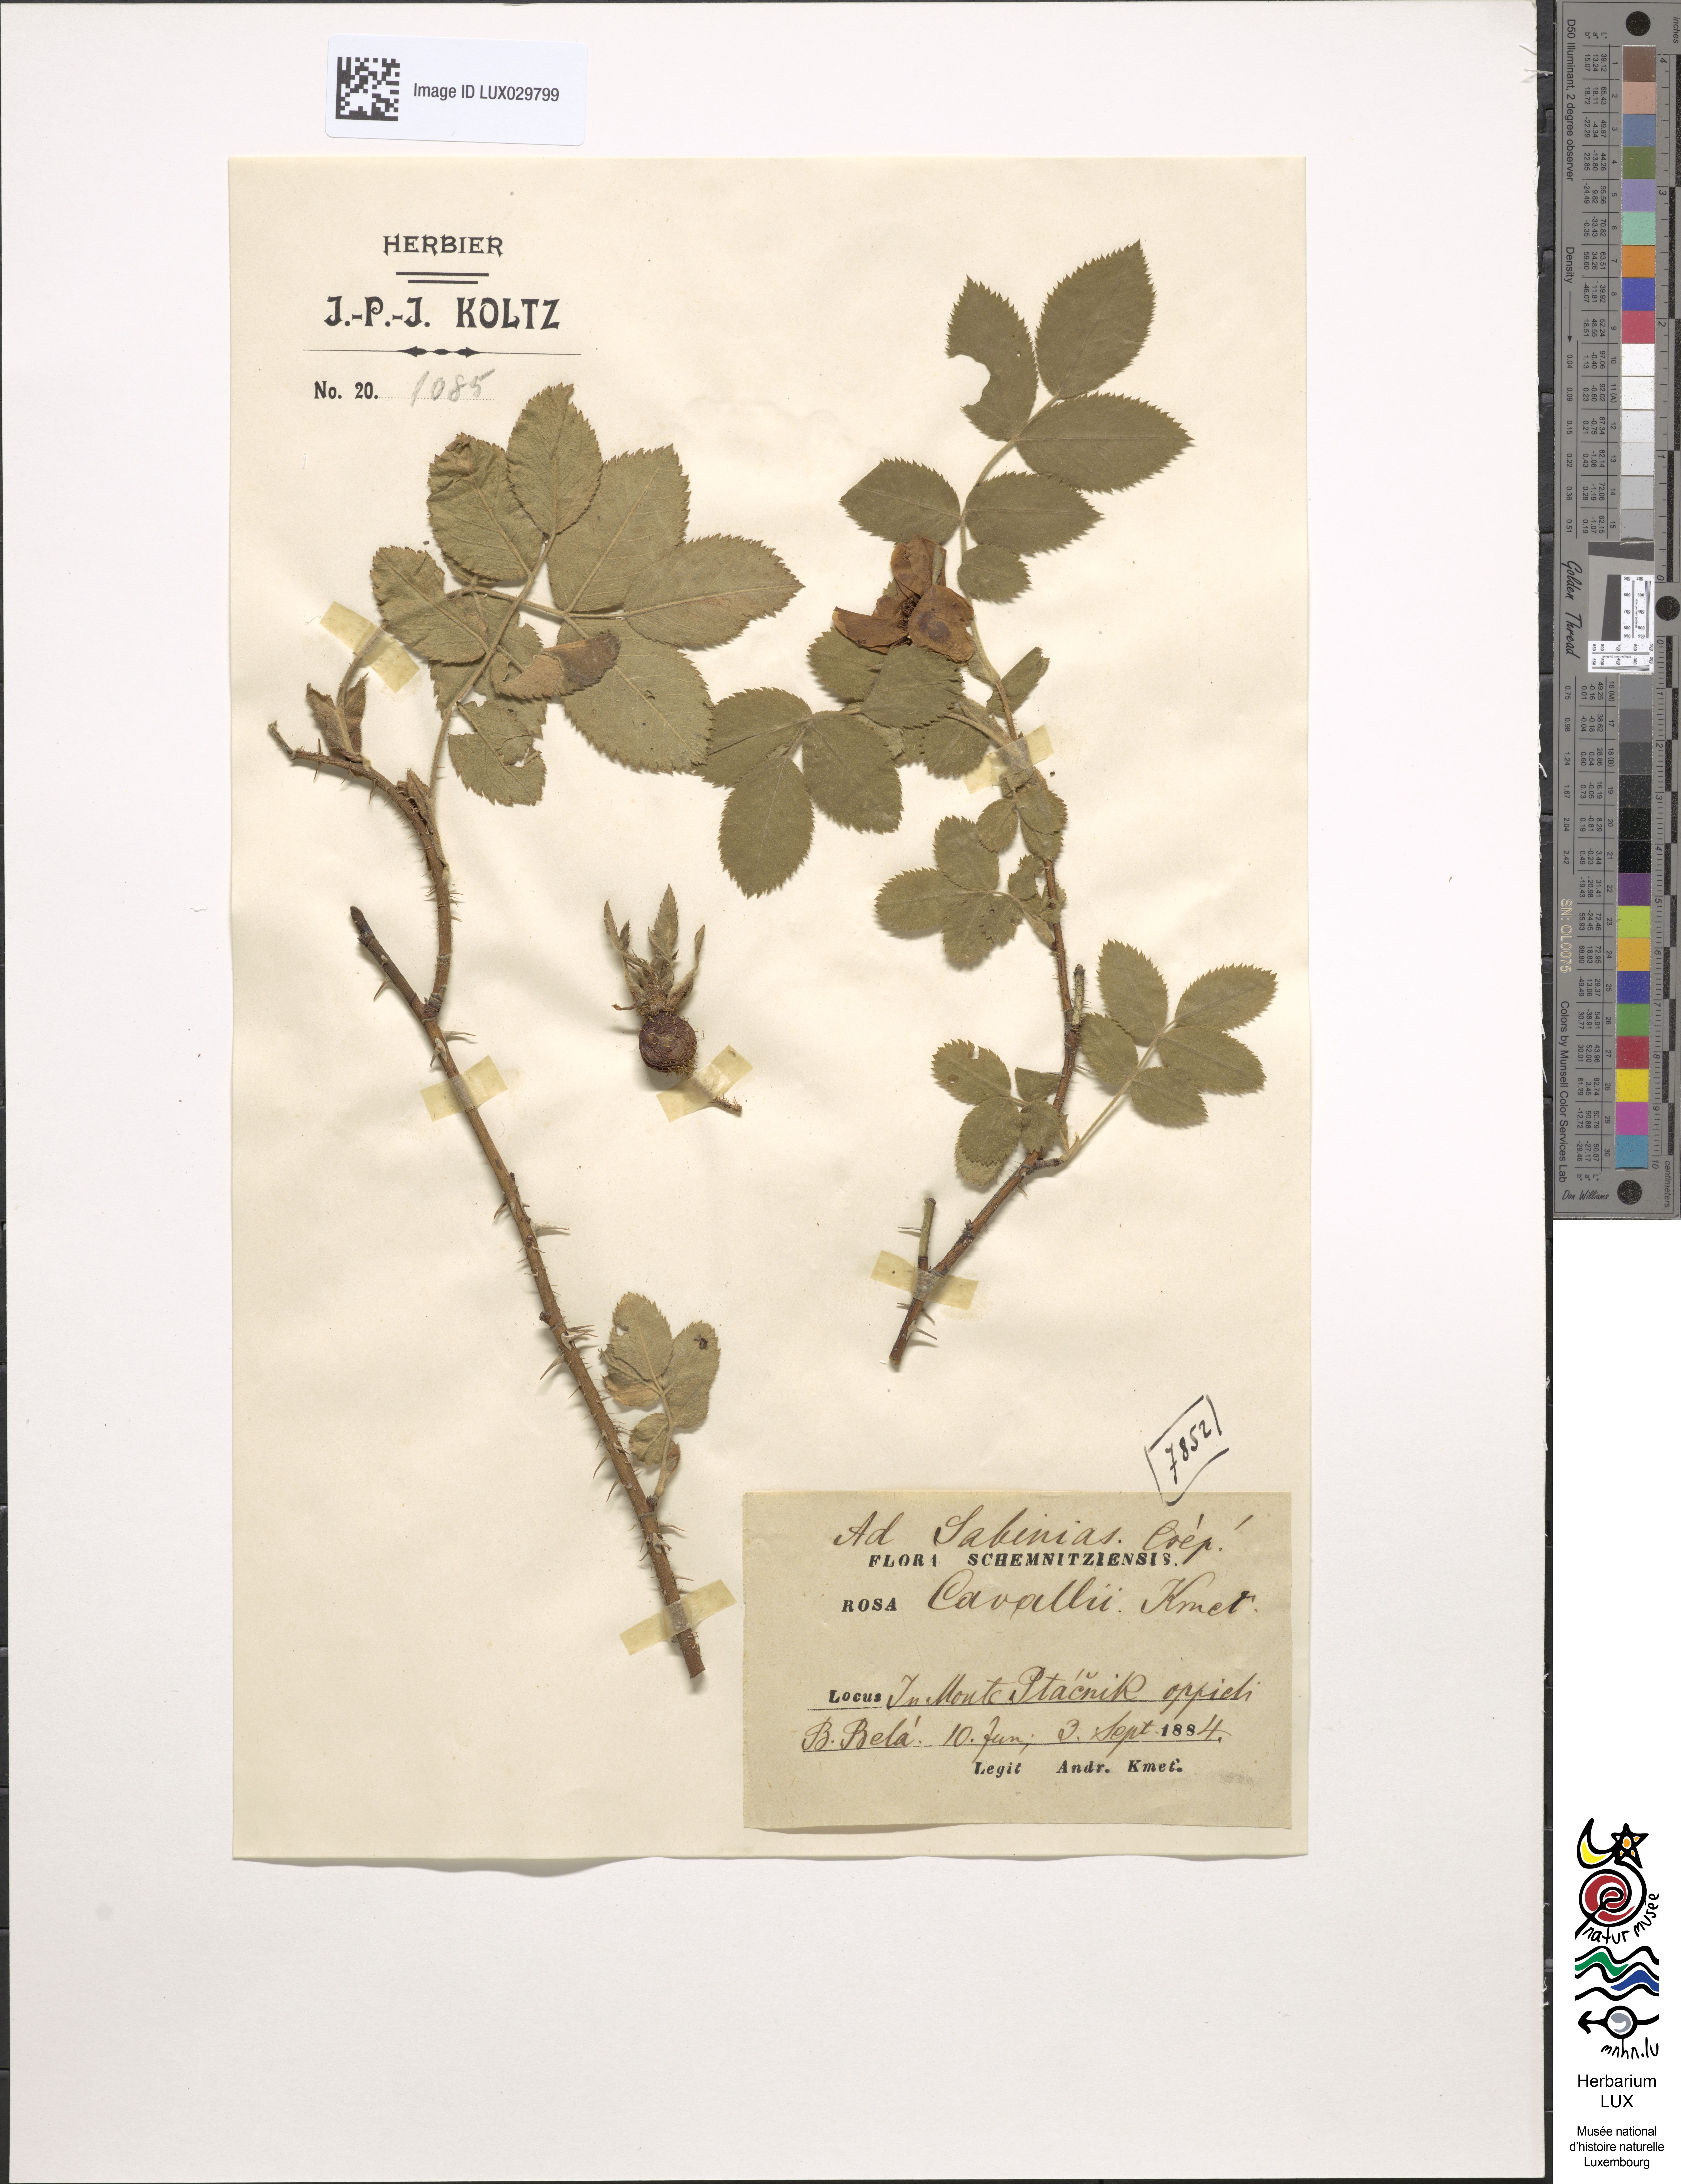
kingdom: Plantae
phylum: Tracheophyta
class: Magnoliopsida
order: Rosales
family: Rosaceae
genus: Rosa
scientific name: Rosa
